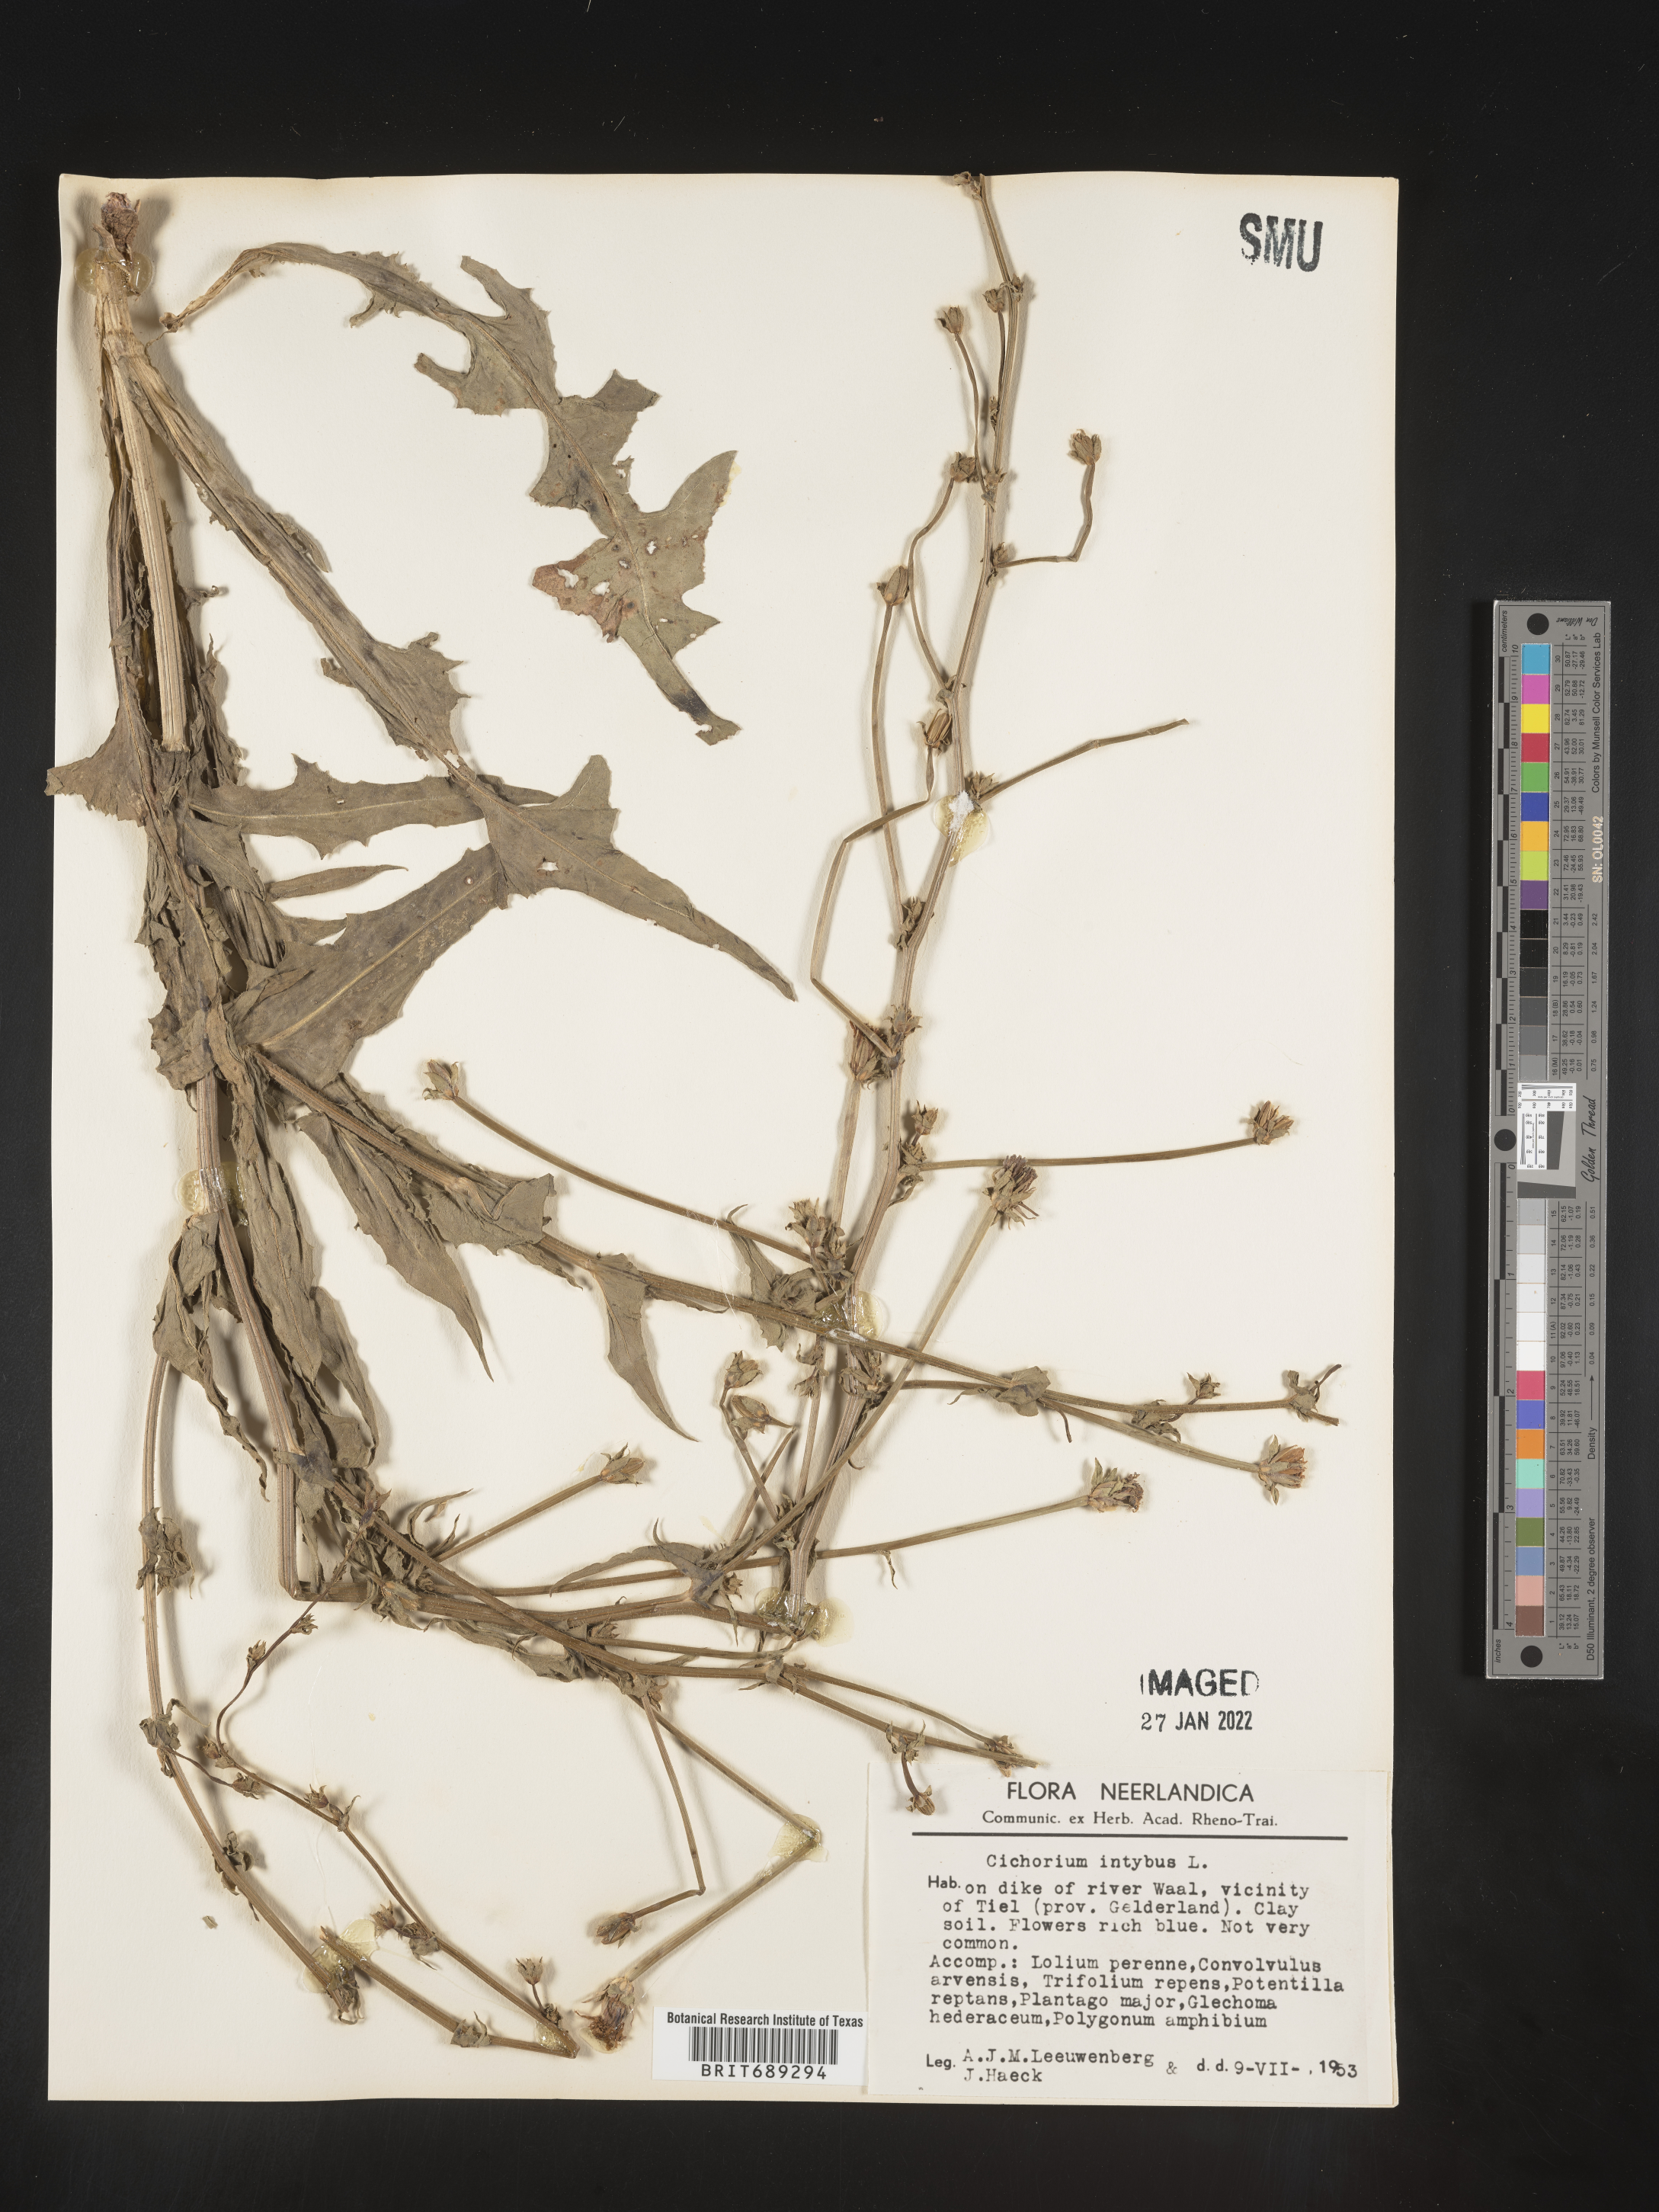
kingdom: Plantae
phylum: Tracheophyta
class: Magnoliopsida
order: Asterales
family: Asteraceae
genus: Cichorium
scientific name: Cichorium
